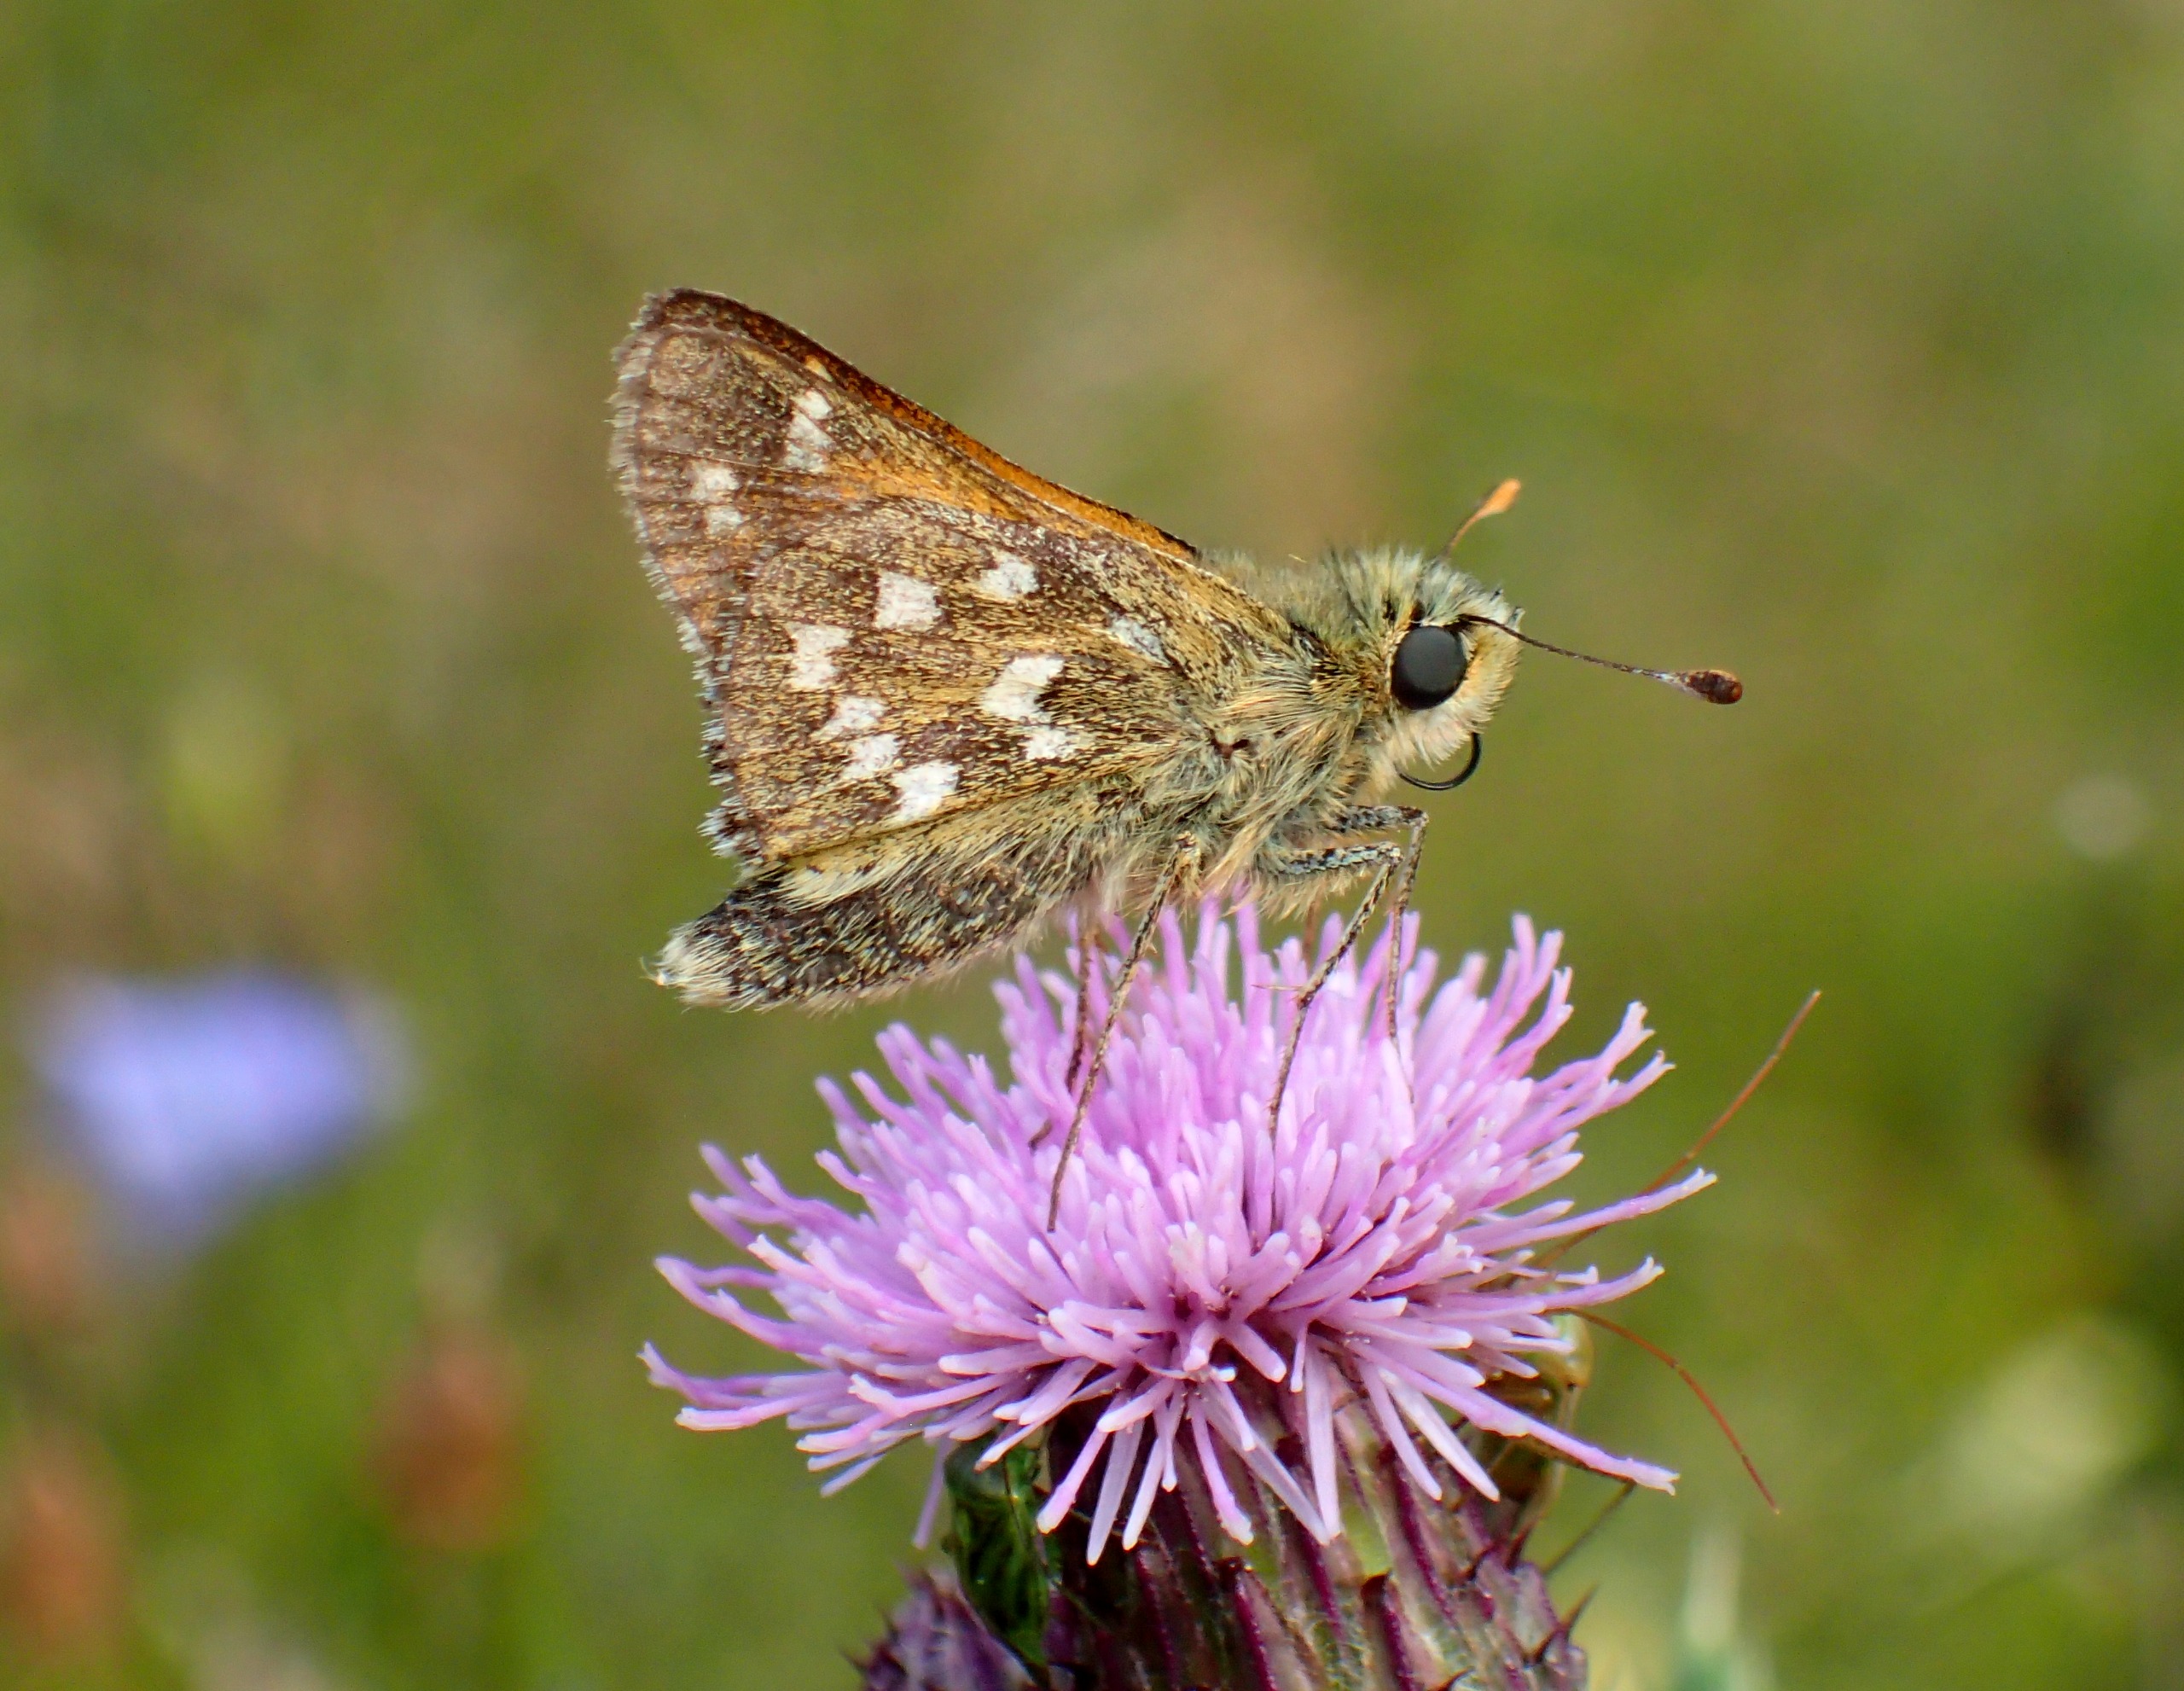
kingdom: Animalia
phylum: Arthropoda
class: Insecta
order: Lepidoptera
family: Hesperiidae
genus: Hesperia
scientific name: Hesperia comma
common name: Kommabredpande
